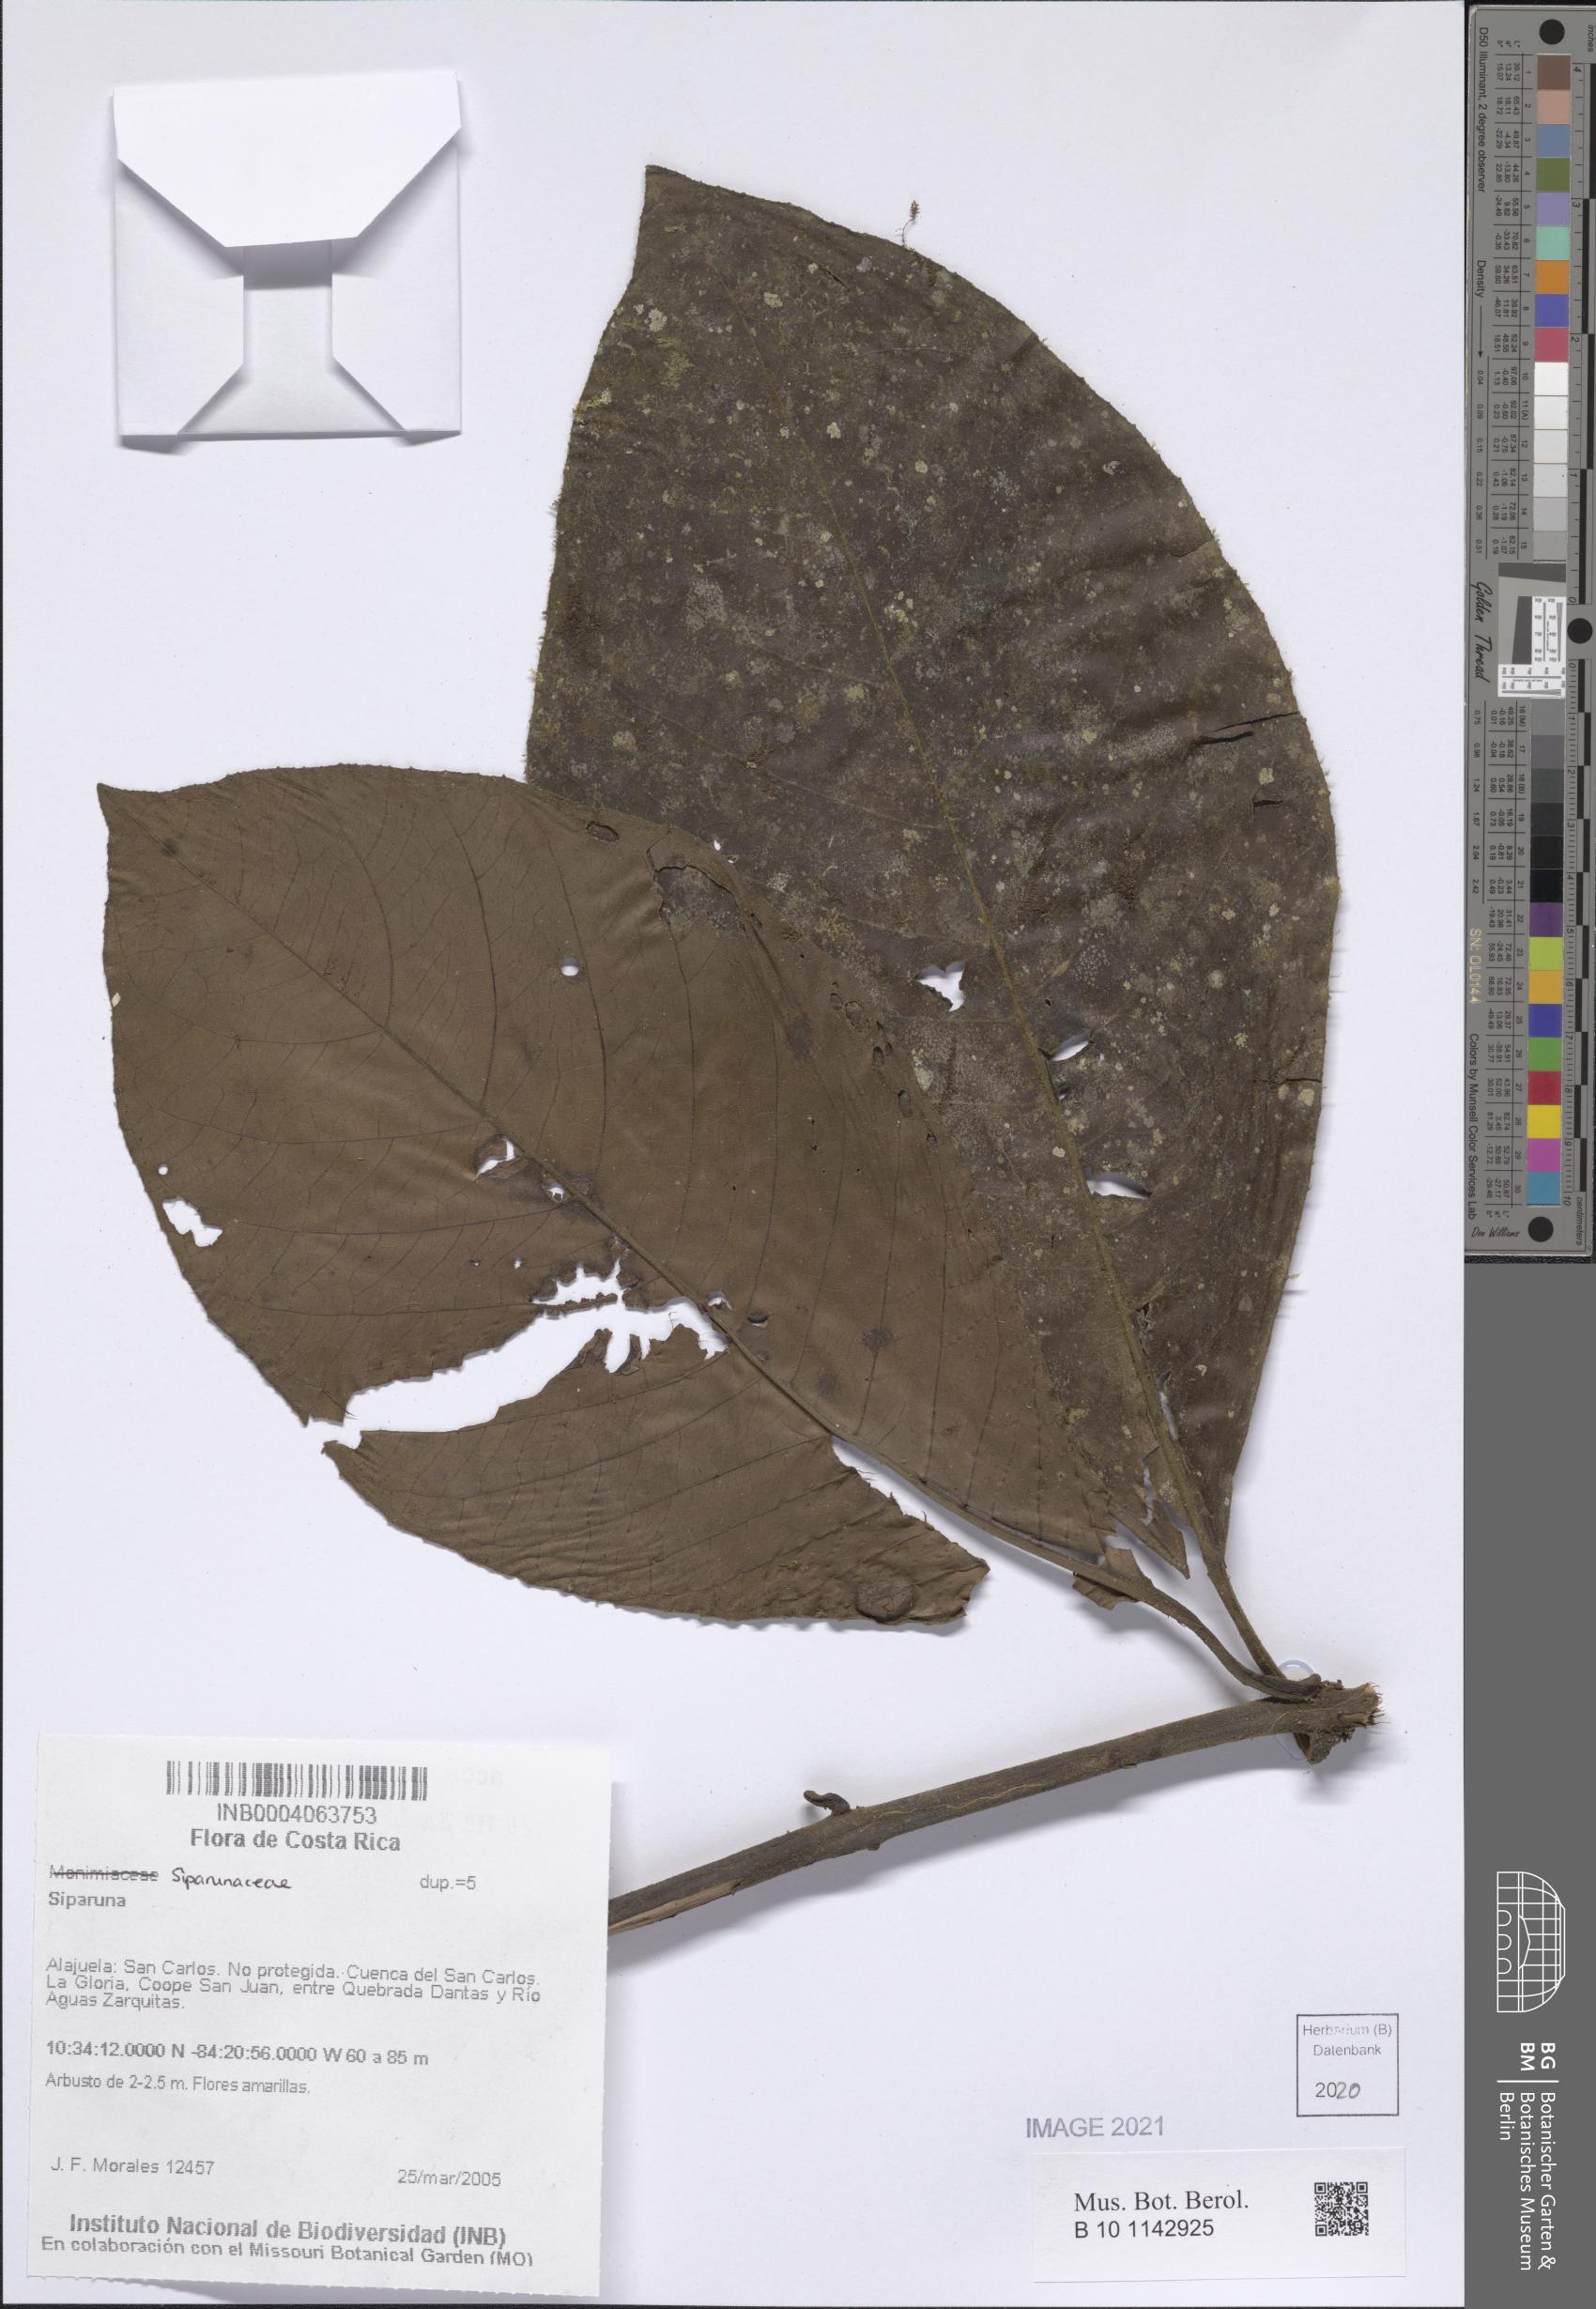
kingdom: Plantae
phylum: Tracheophyta
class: Magnoliopsida
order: Laurales
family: Siparunaceae
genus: Siparuna
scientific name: Siparuna
